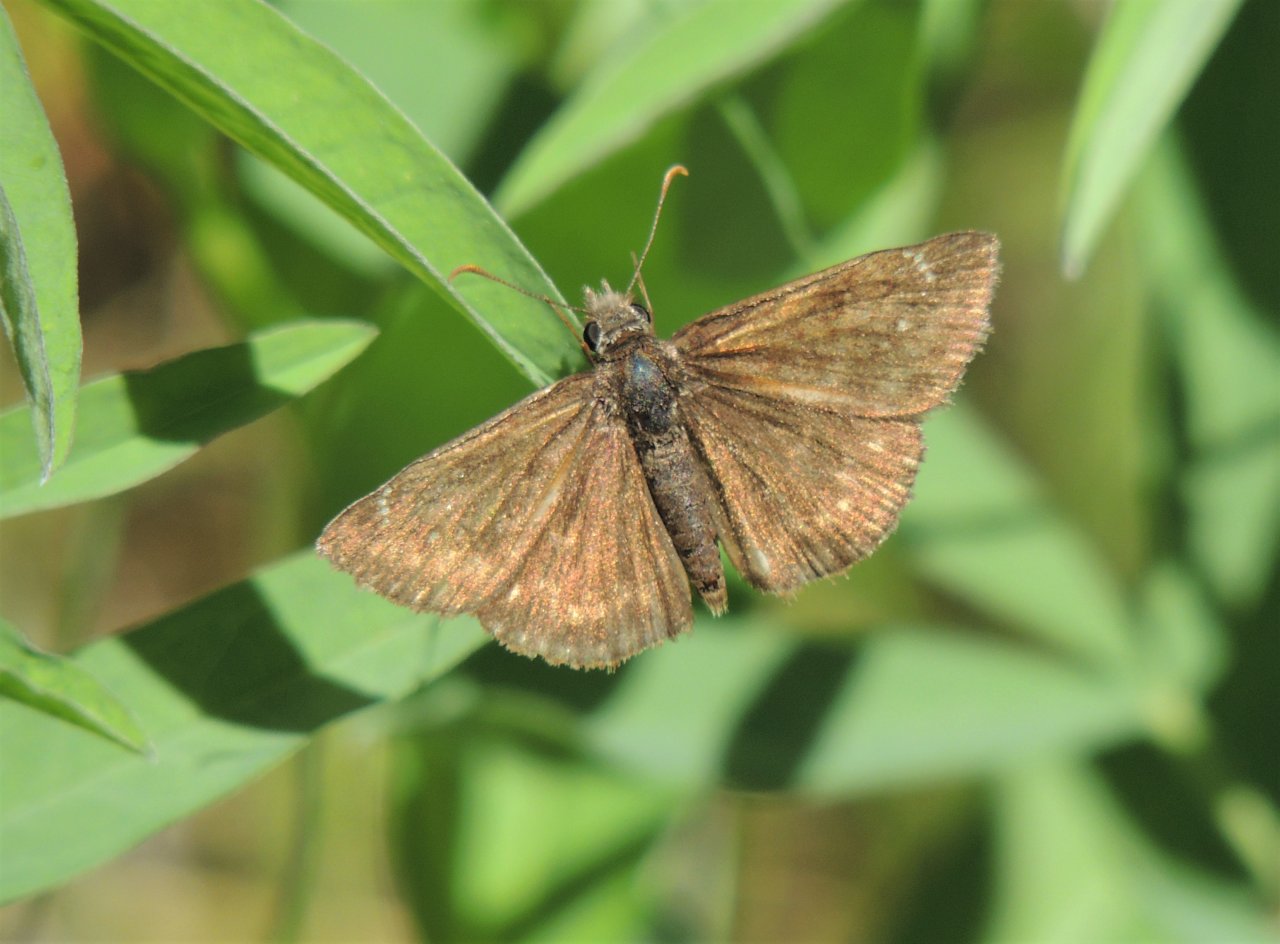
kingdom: Animalia
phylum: Arthropoda
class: Insecta
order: Lepidoptera
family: Hesperiidae
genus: Gesta
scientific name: Gesta
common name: Persius Duskywing
